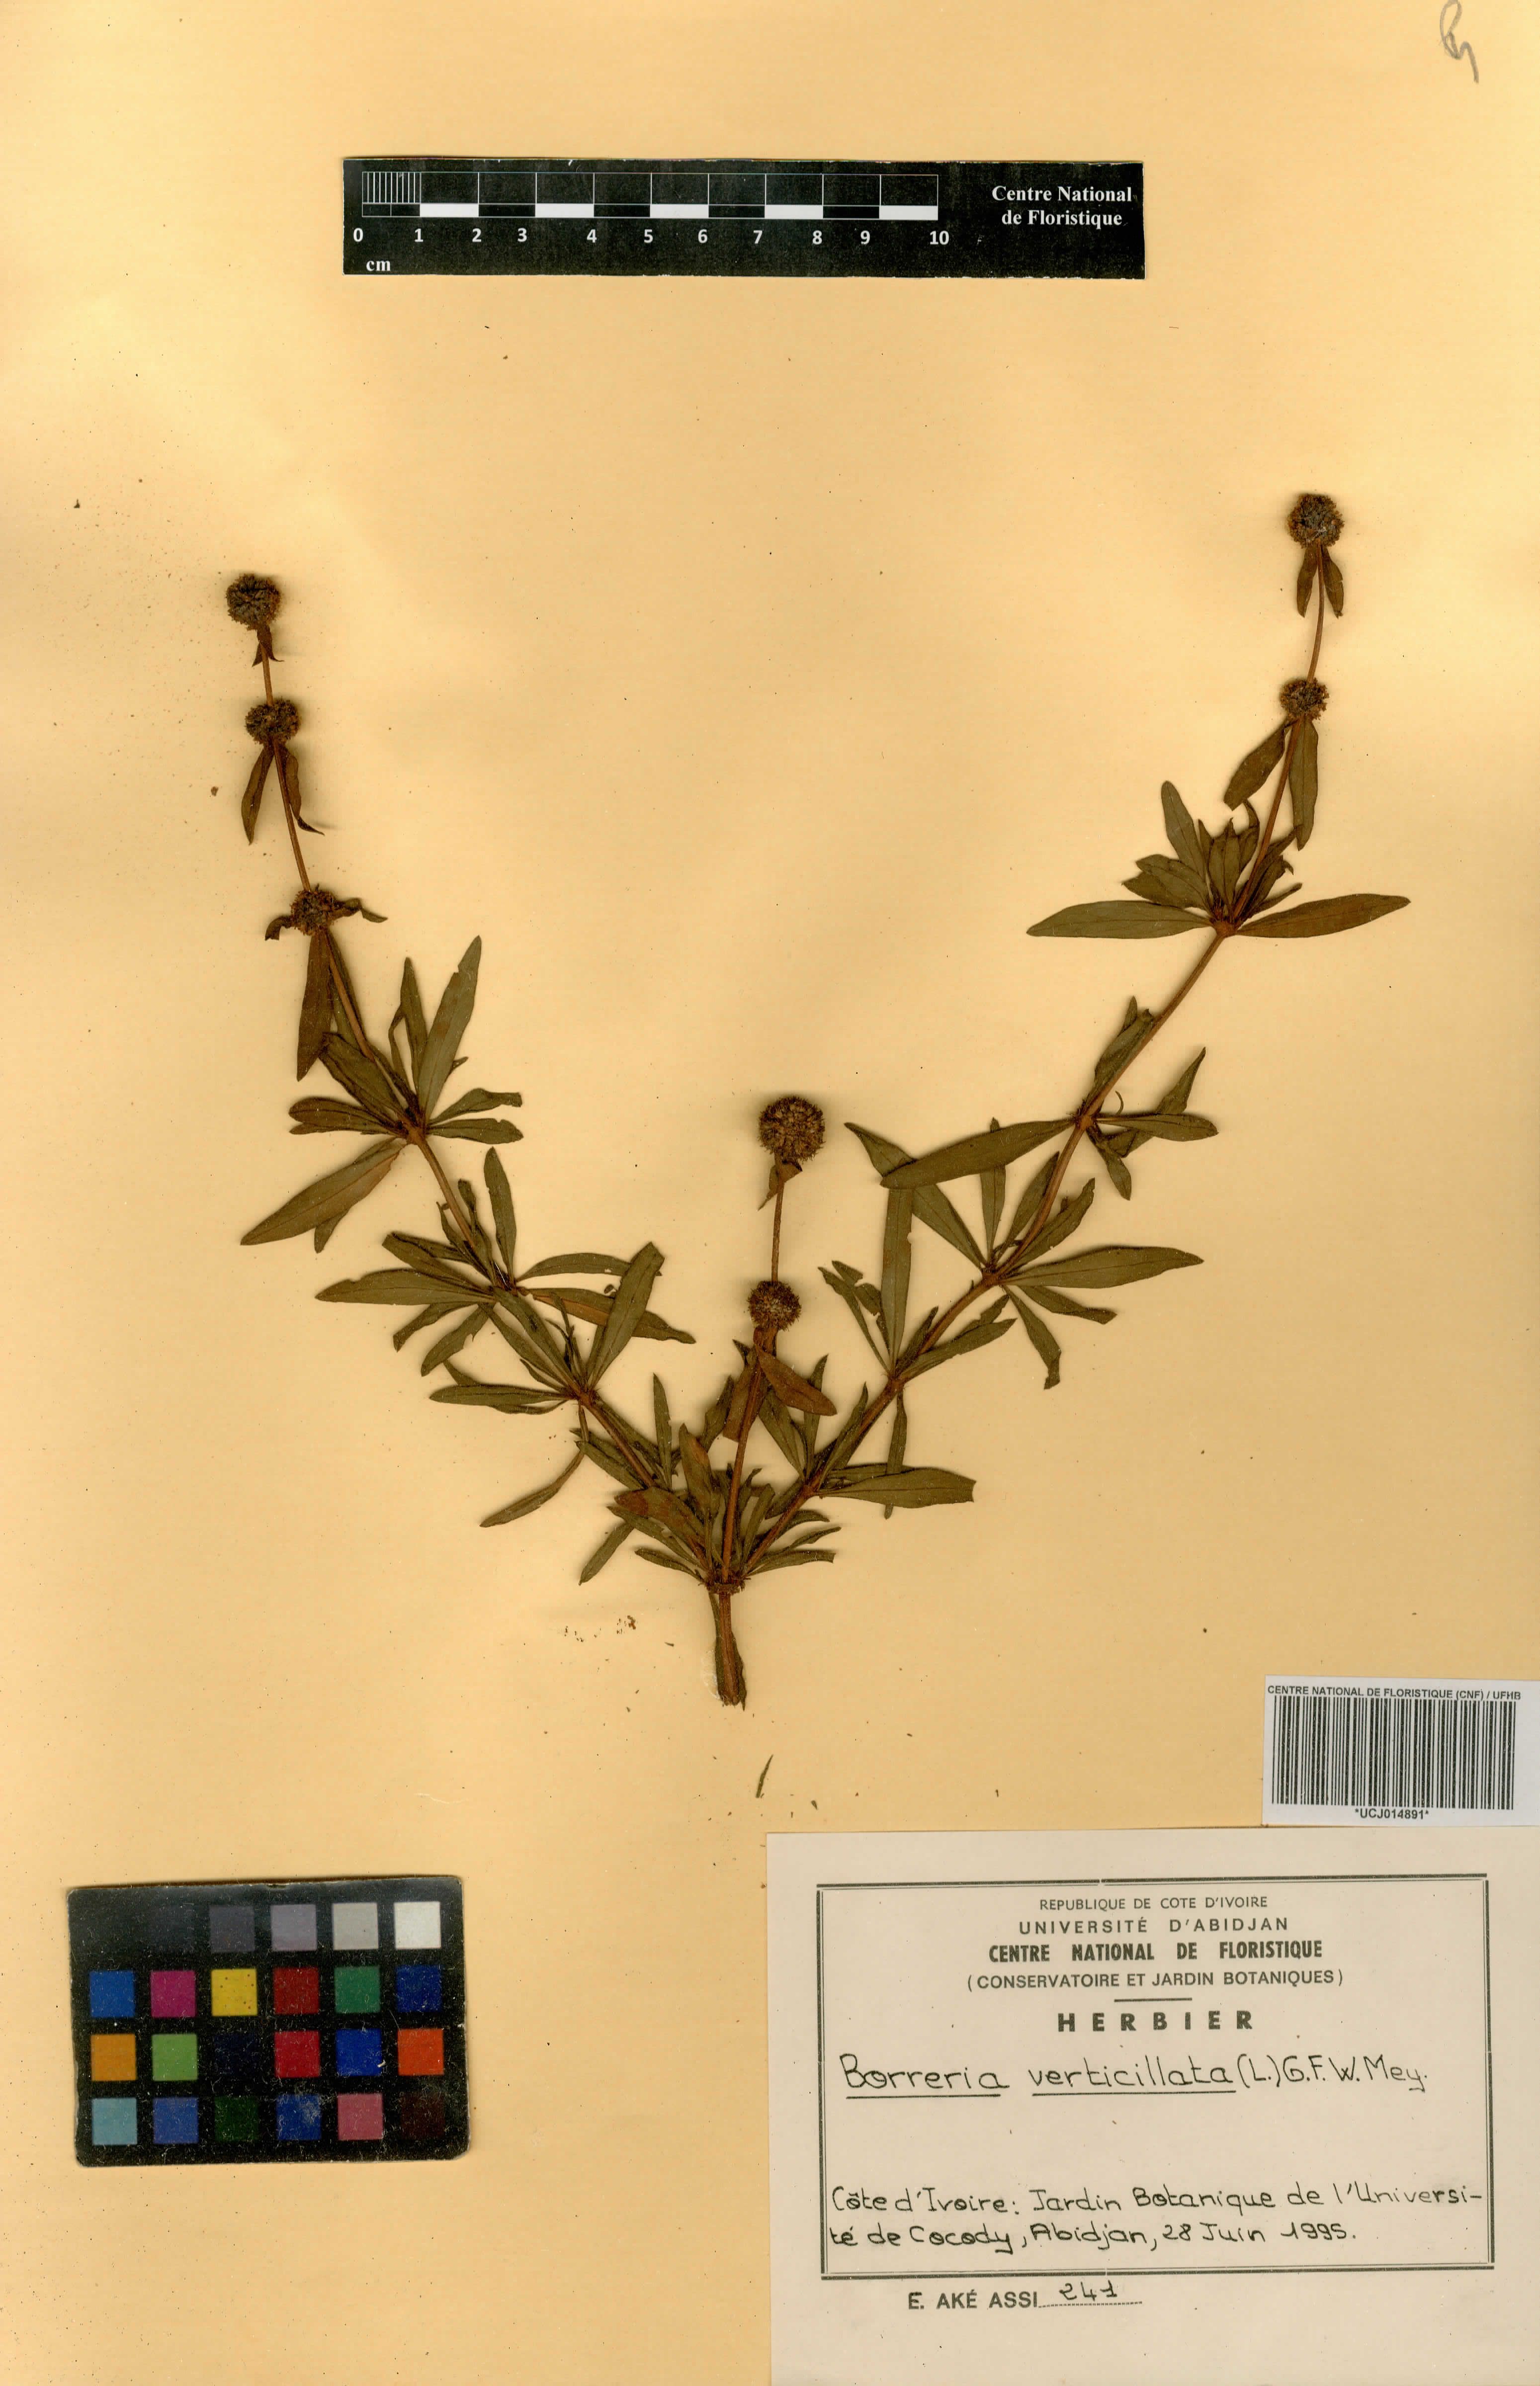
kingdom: Plantae
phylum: Tracheophyta
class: Magnoliopsida
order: Gentianales
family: Rubiaceae
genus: Spermacoce
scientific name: Spermacoce verticillata
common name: Shrubby false buttonweed
